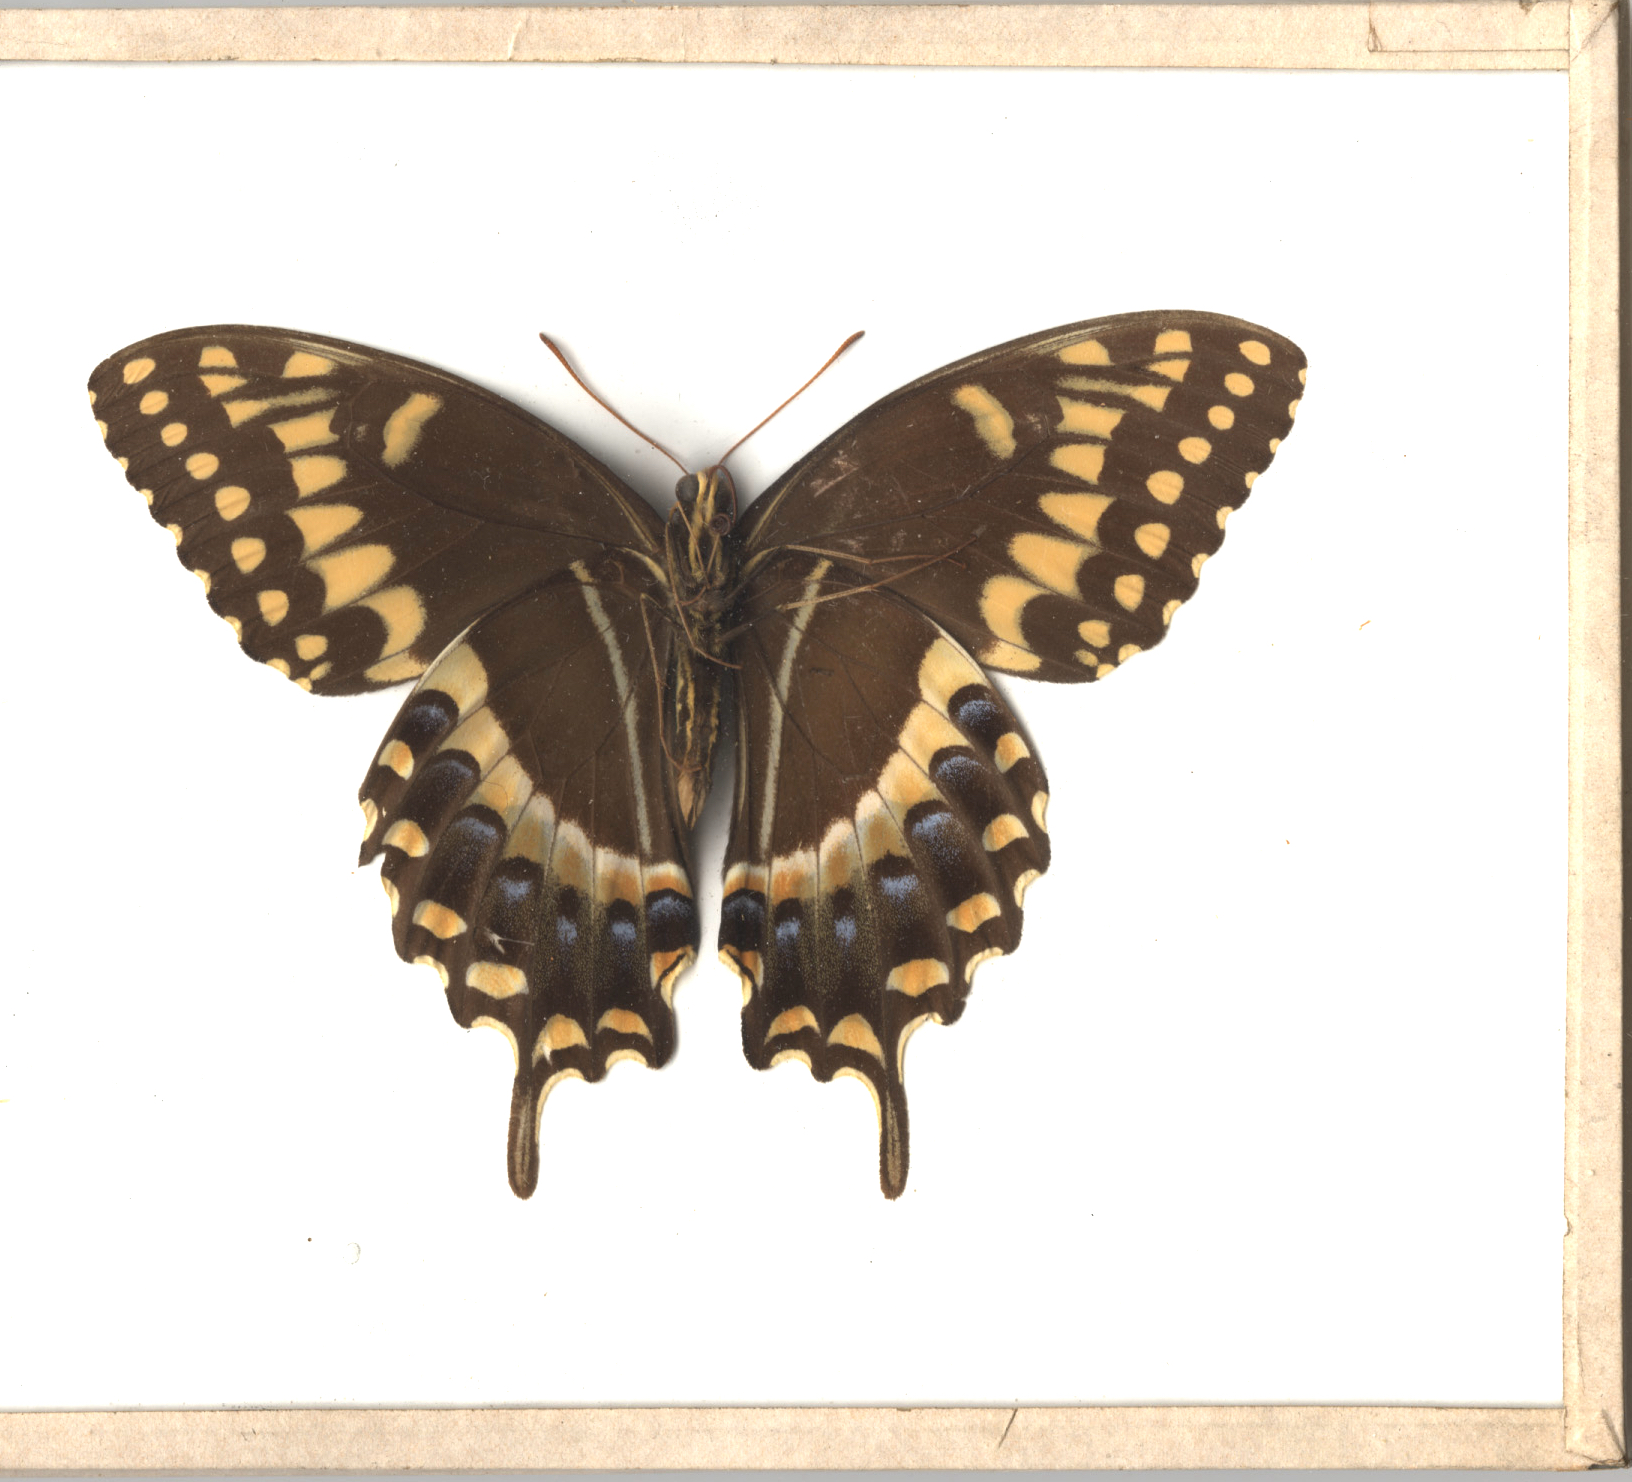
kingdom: Animalia
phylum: Arthropoda
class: Insecta
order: Lepidoptera
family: Papilionidae
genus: Papilio
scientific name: Papilio palamedes
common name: Palamedes Swallowtail
